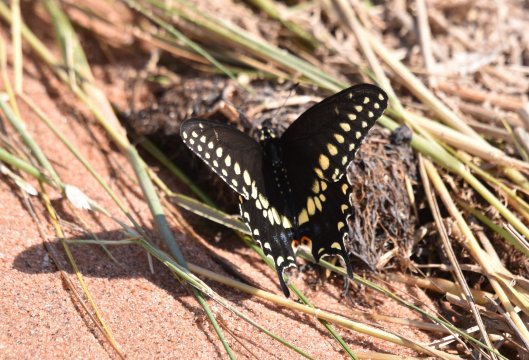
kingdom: Animalia
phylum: Arthropoda
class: Insecta
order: Lepidoptera
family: Papilionidae
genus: Papilio
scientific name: Papilio polyxenes
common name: Black Swallowtail
